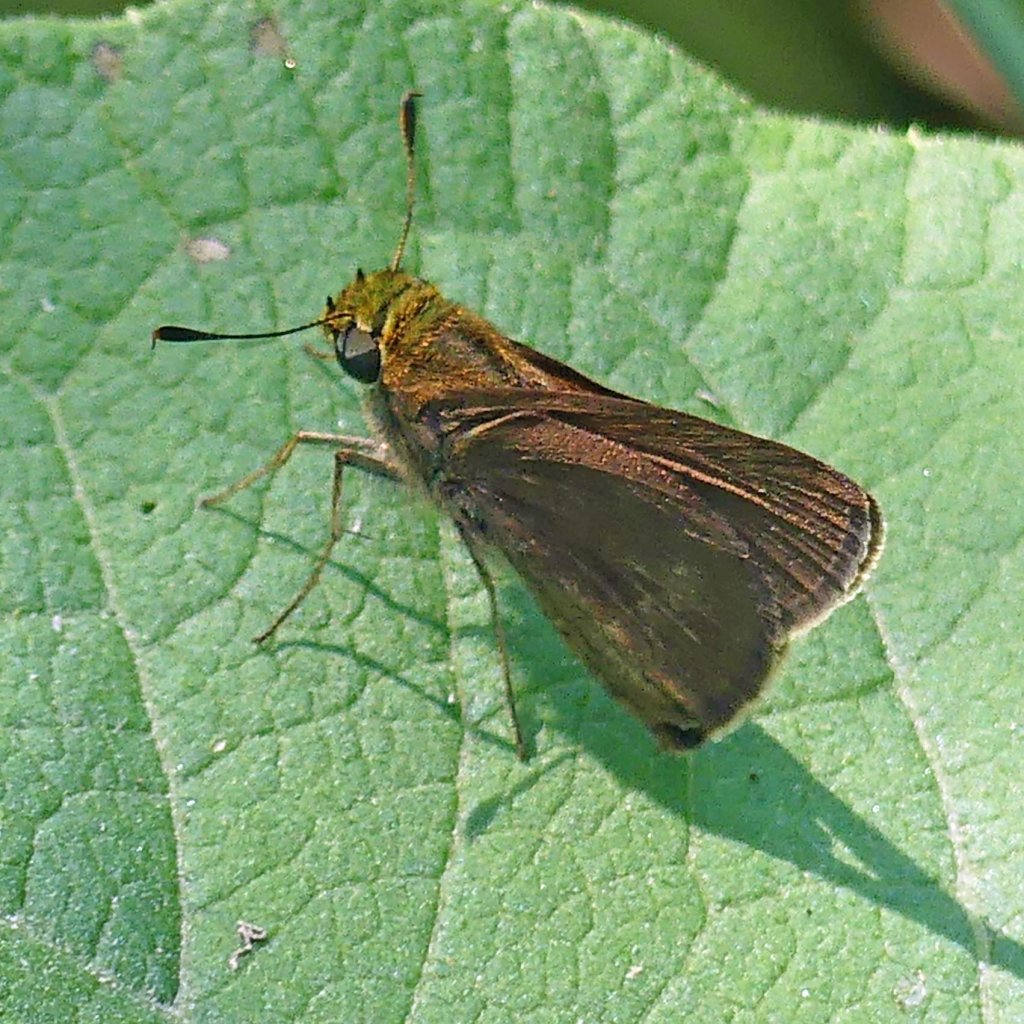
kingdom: Animalia
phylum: Arthropoda
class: Insecta
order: Lepidoptera
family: Hesperiidae
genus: Euphyes
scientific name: Euphyes vestris
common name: Dun Skipper
